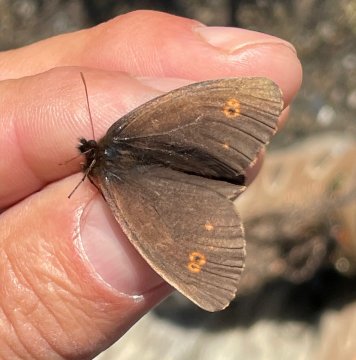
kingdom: Animalia
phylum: Arthropoda
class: Insecta
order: Lepidoptera
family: Nymphalidae
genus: Erebia
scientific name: Erebia rossii
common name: Ross's Alpine
